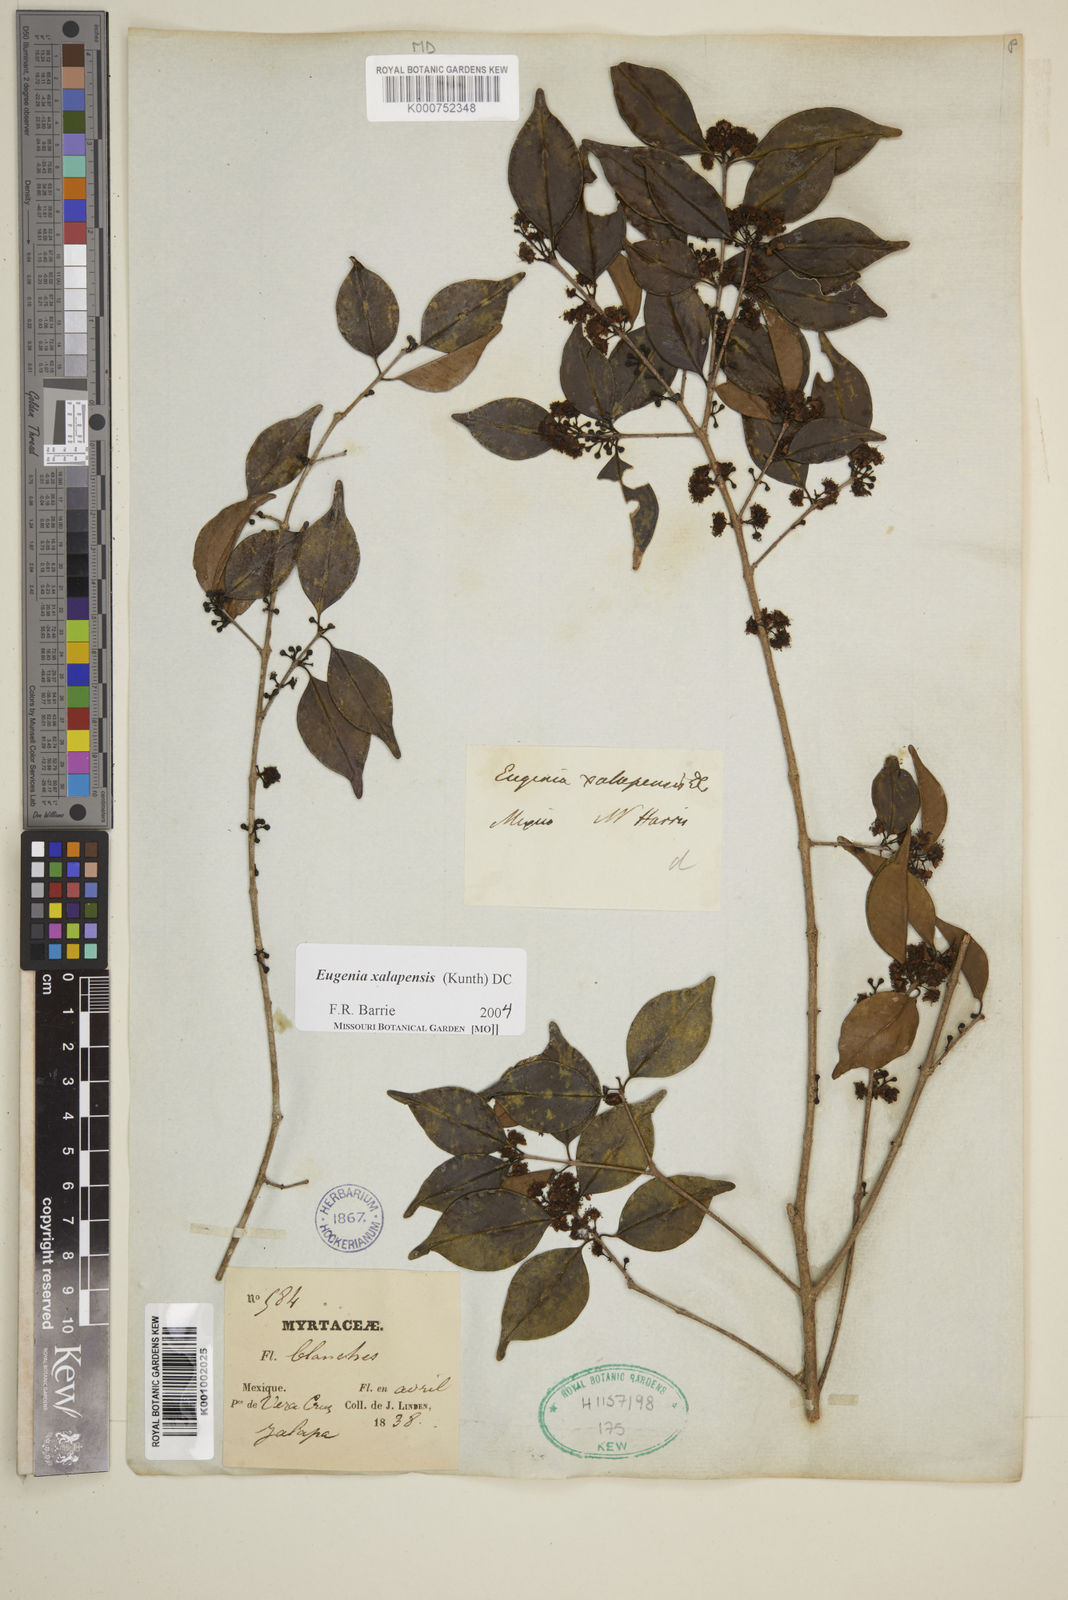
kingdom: Plantae
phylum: Tracheophyta
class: Magnoliopsida
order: Myrtales
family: Myrtaceae
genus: Eugenia
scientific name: Eugenia xalapensis
